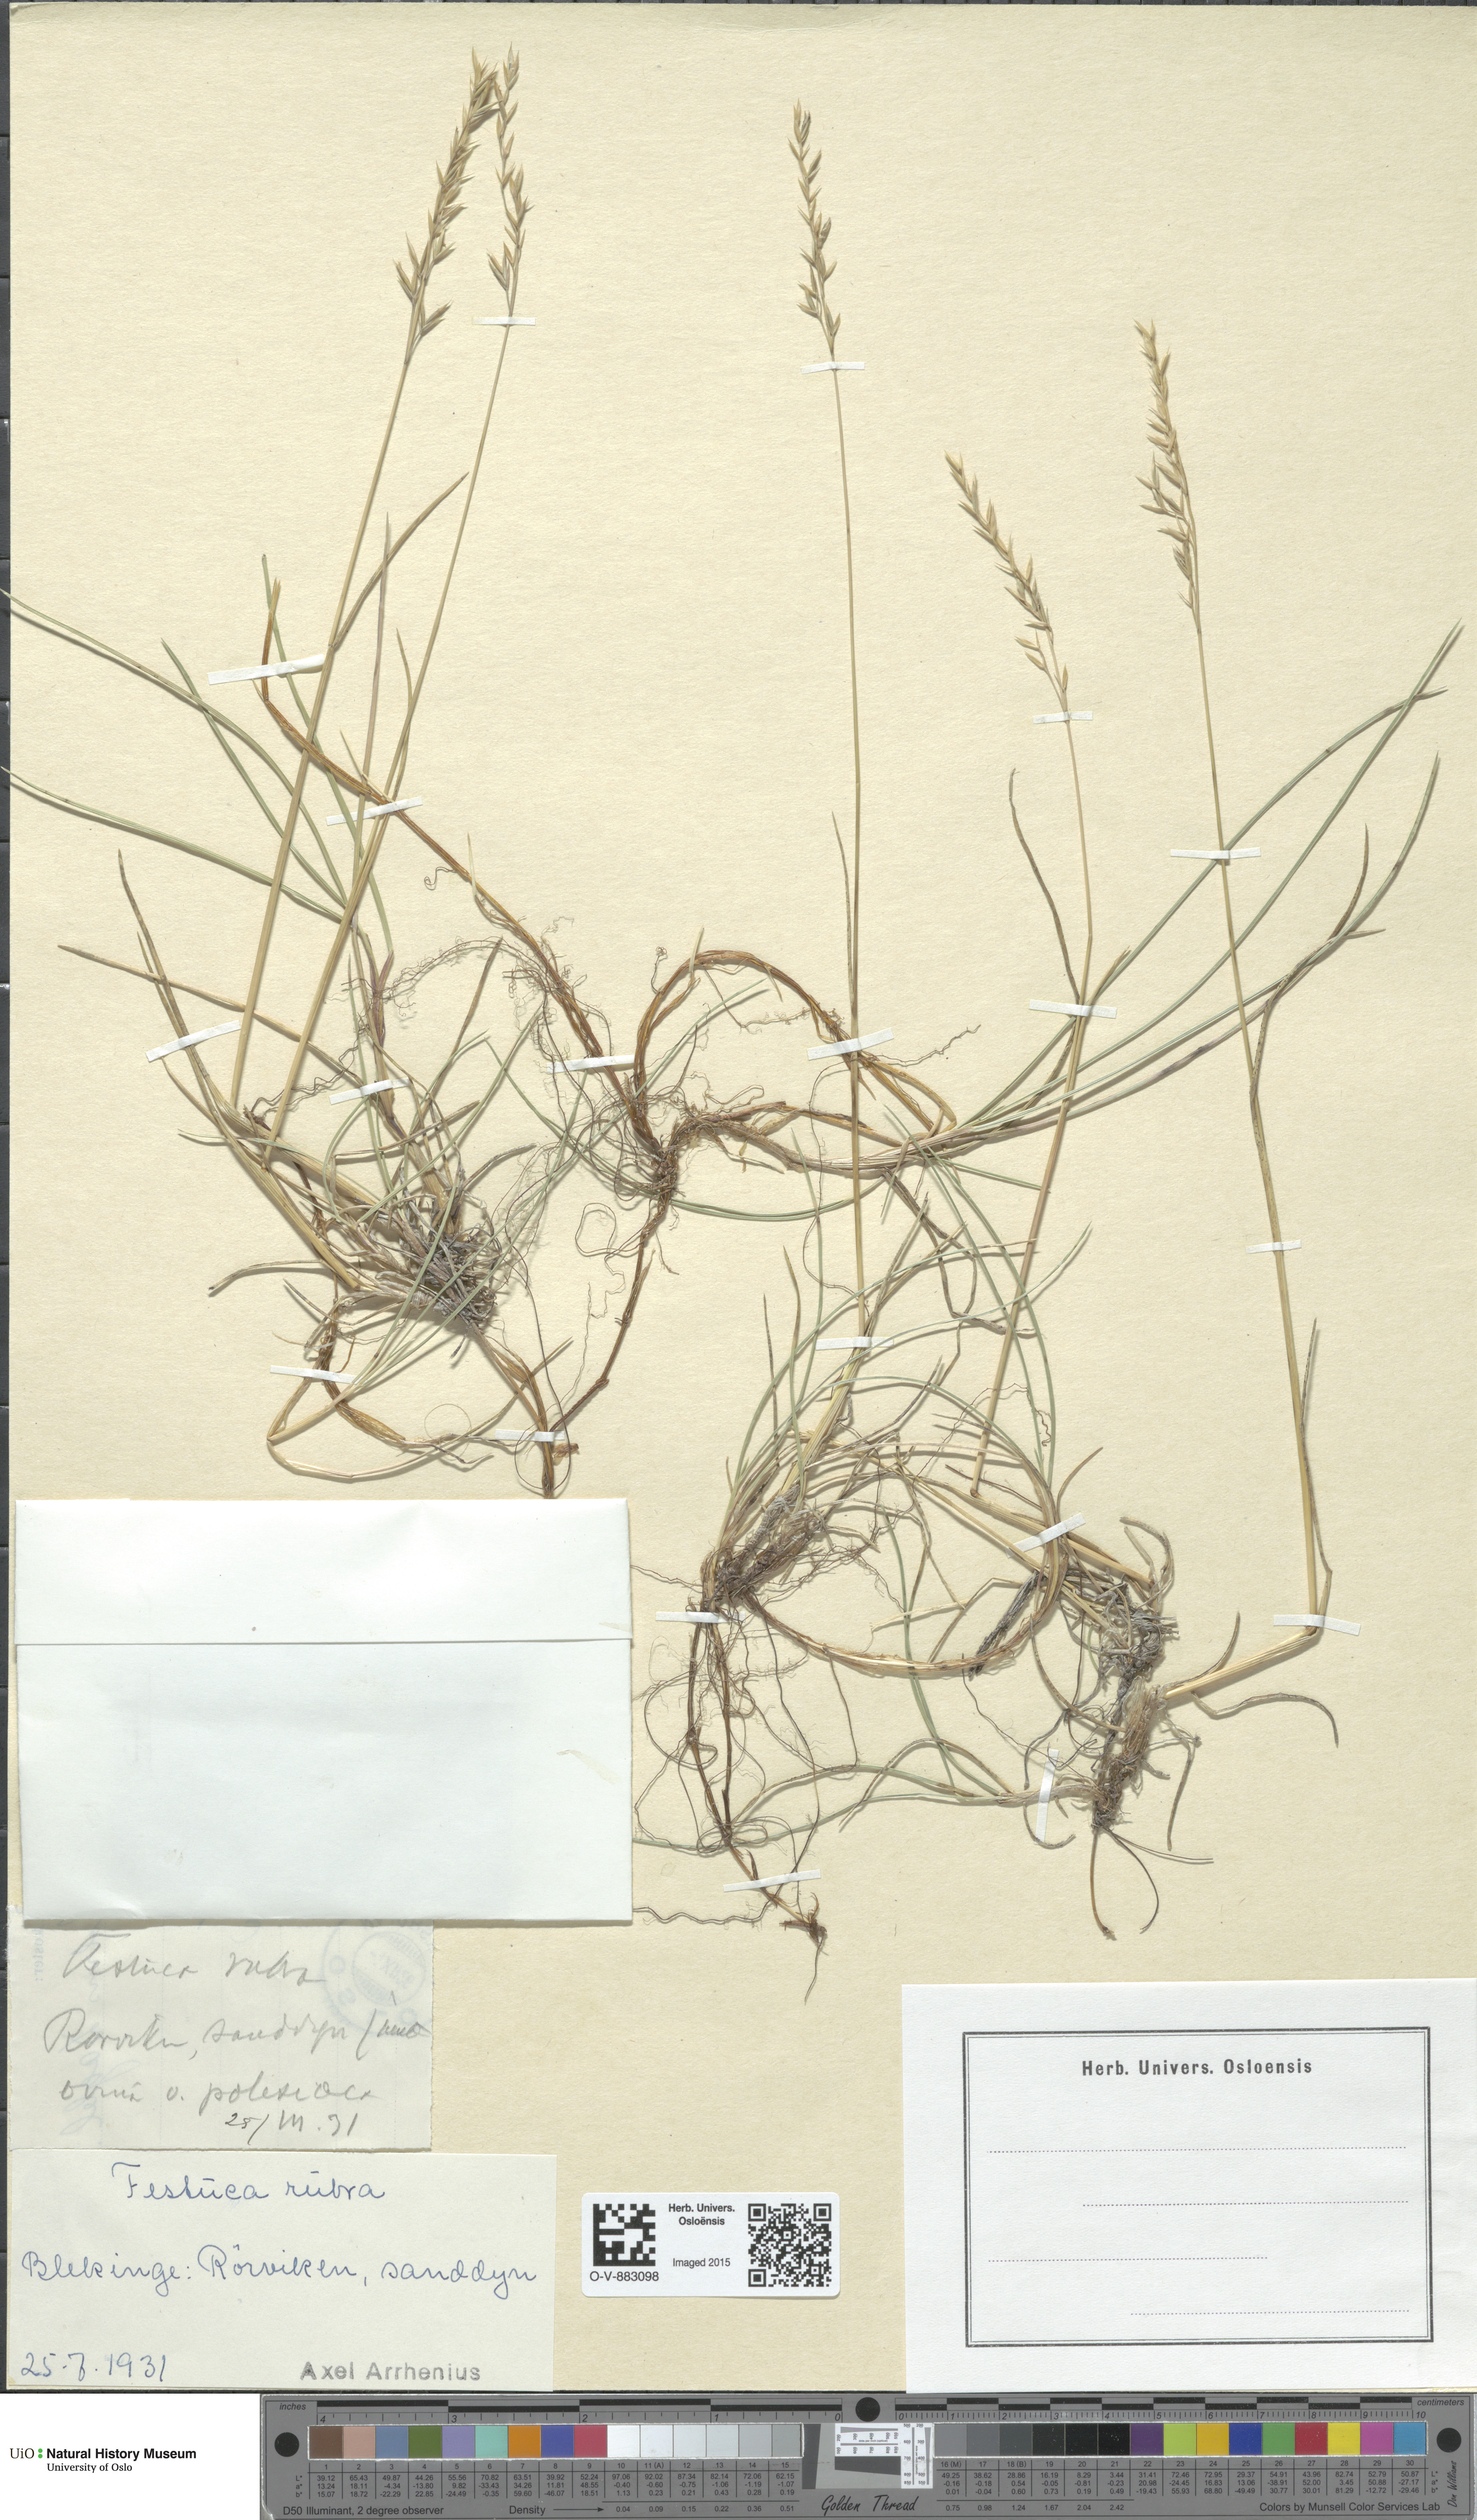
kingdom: Plantae
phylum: Tracheophyta
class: Liliopsida
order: Poales
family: Poaceae
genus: Festuca
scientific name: Festuca rubra
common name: Red fescue
